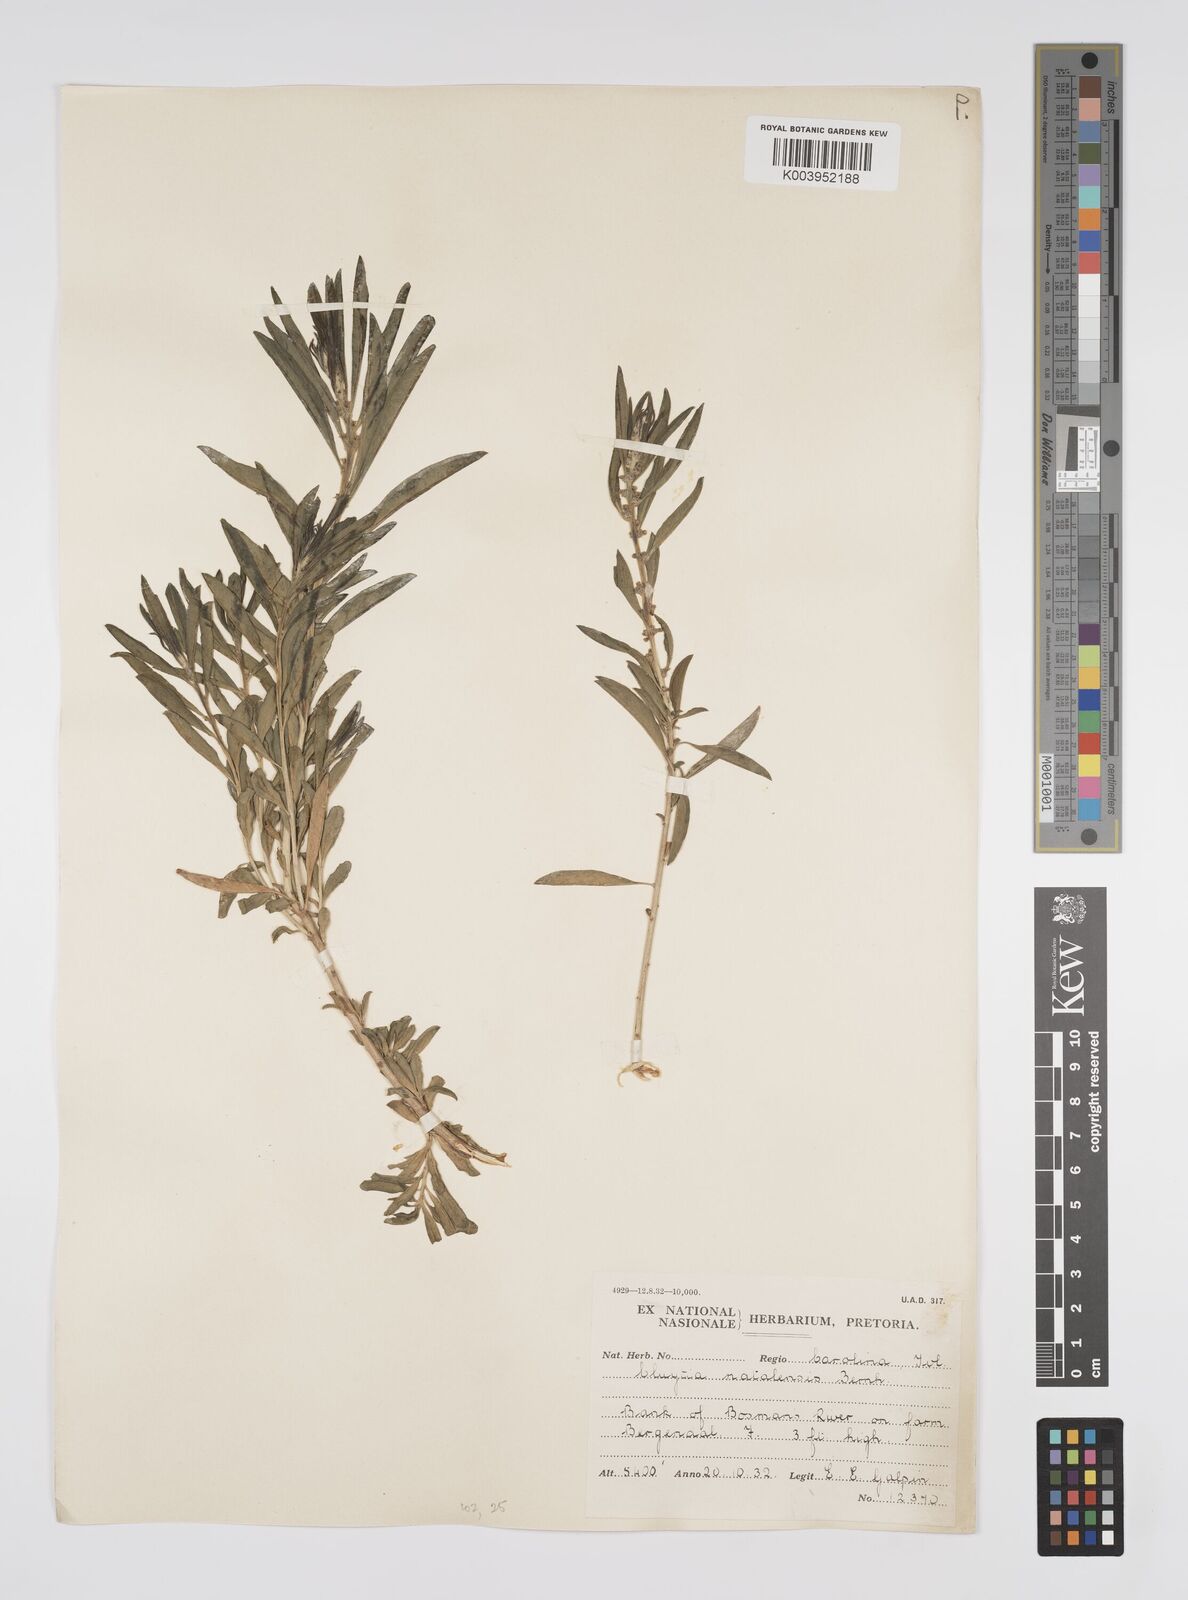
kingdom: Plantae
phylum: Tracheophyta
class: Magnoliopsida
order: Malpighiales
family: Peraceae
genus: Clutia
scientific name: Clutia natalensis
